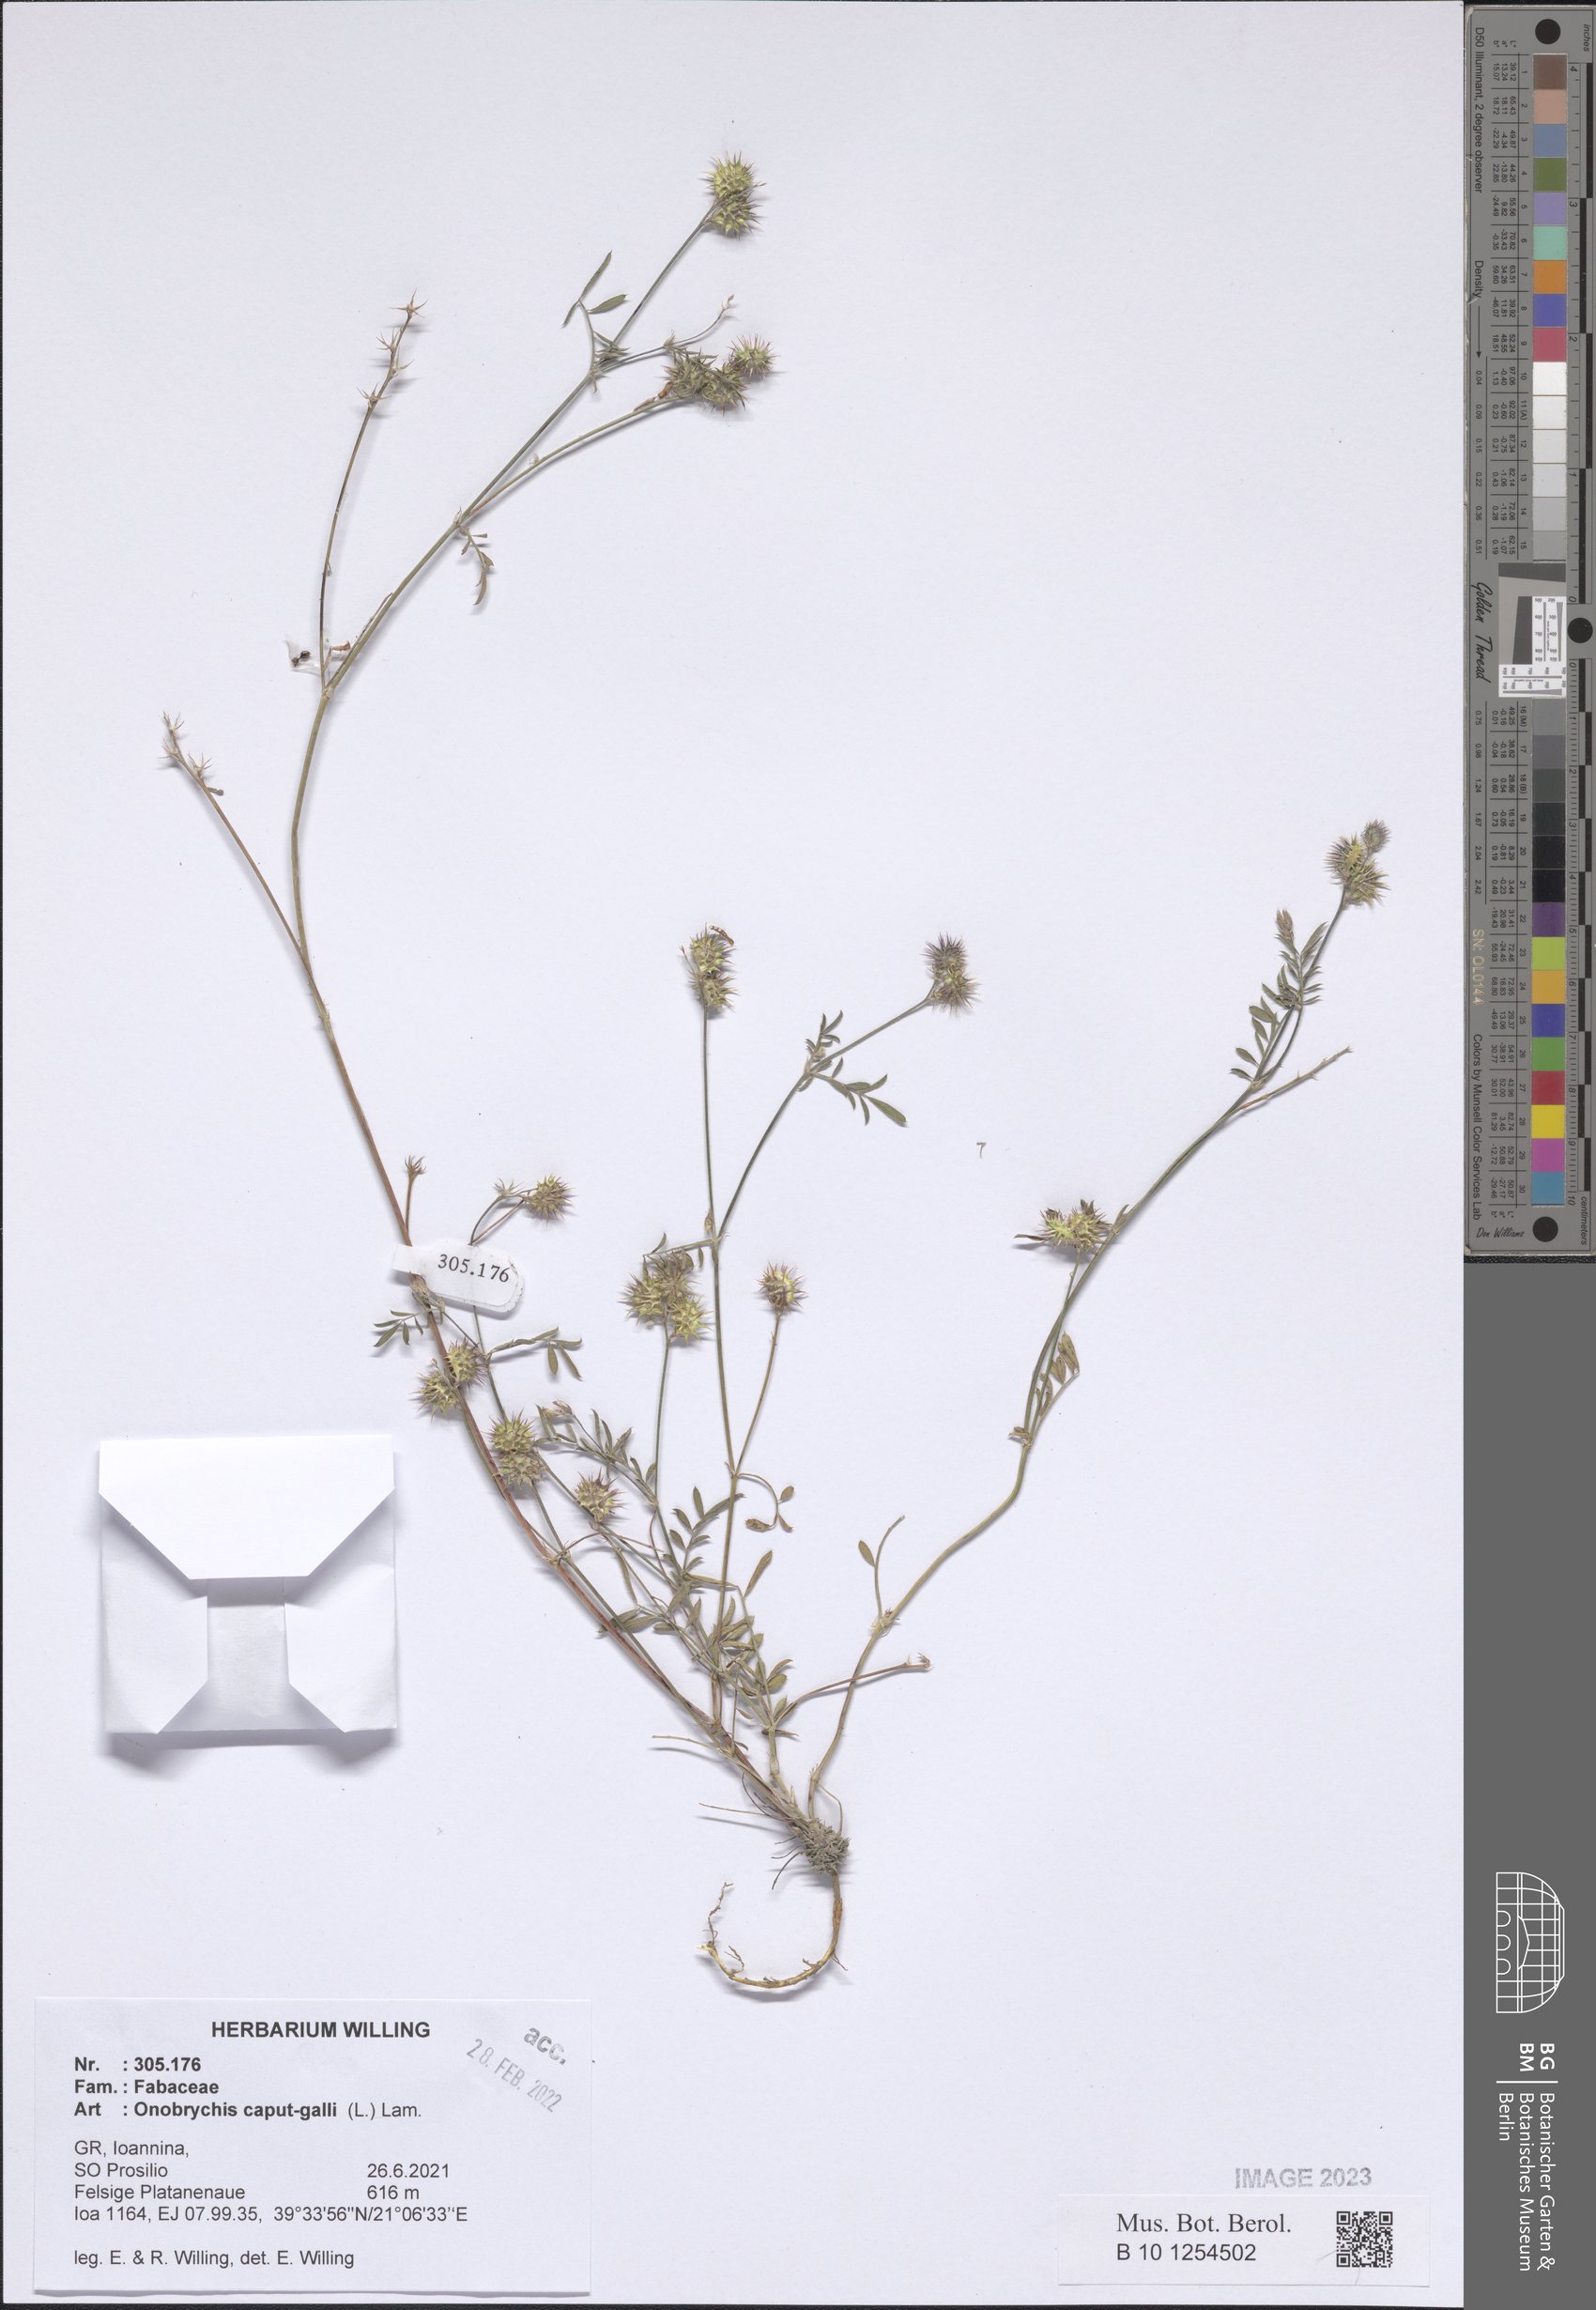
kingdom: Plantae
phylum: Tracheophyta
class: Magnoliopsida
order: Fabales
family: Fabaceae
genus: Onobrychis
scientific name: Onobrychis caput-galli
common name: Cockscomb sainfoin
